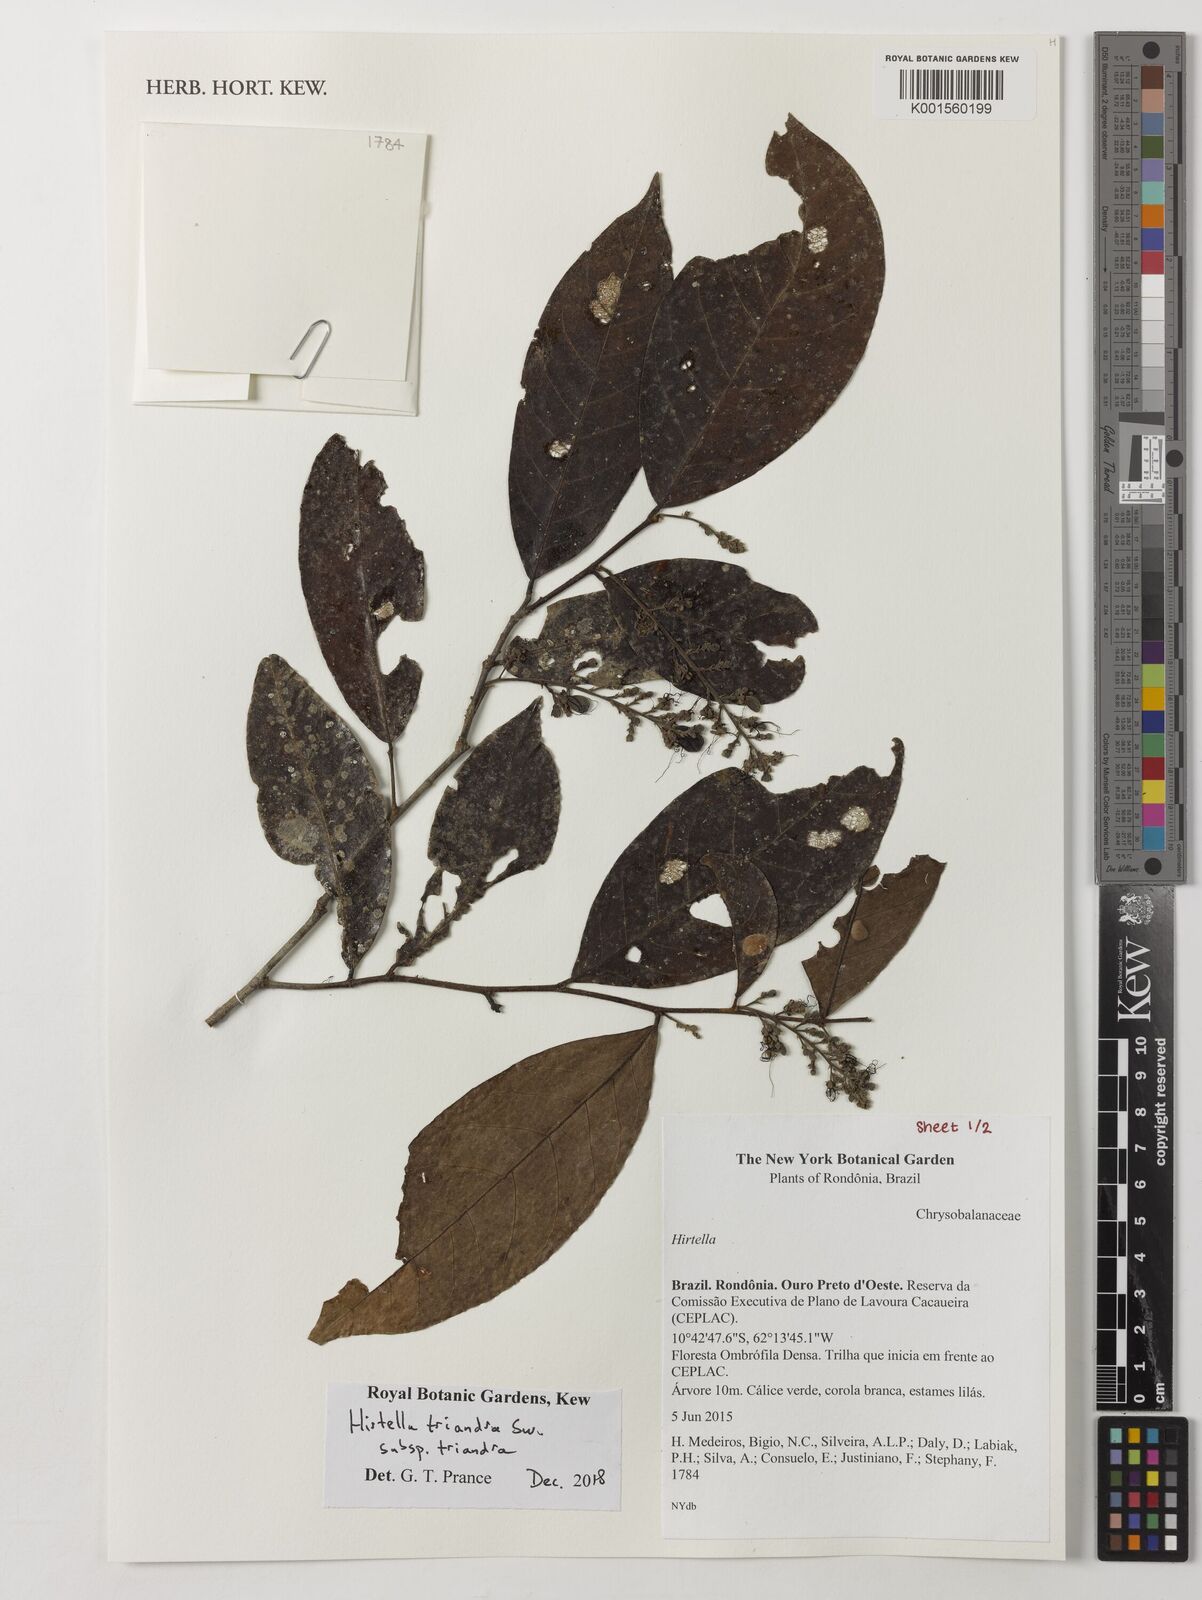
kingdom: Plantae
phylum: Tracheophyta
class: Magnoliopsida
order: Malpighiales
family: Chrysobalanaceae
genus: Hirtella
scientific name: Hirtella triandra
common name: Hairy plum
